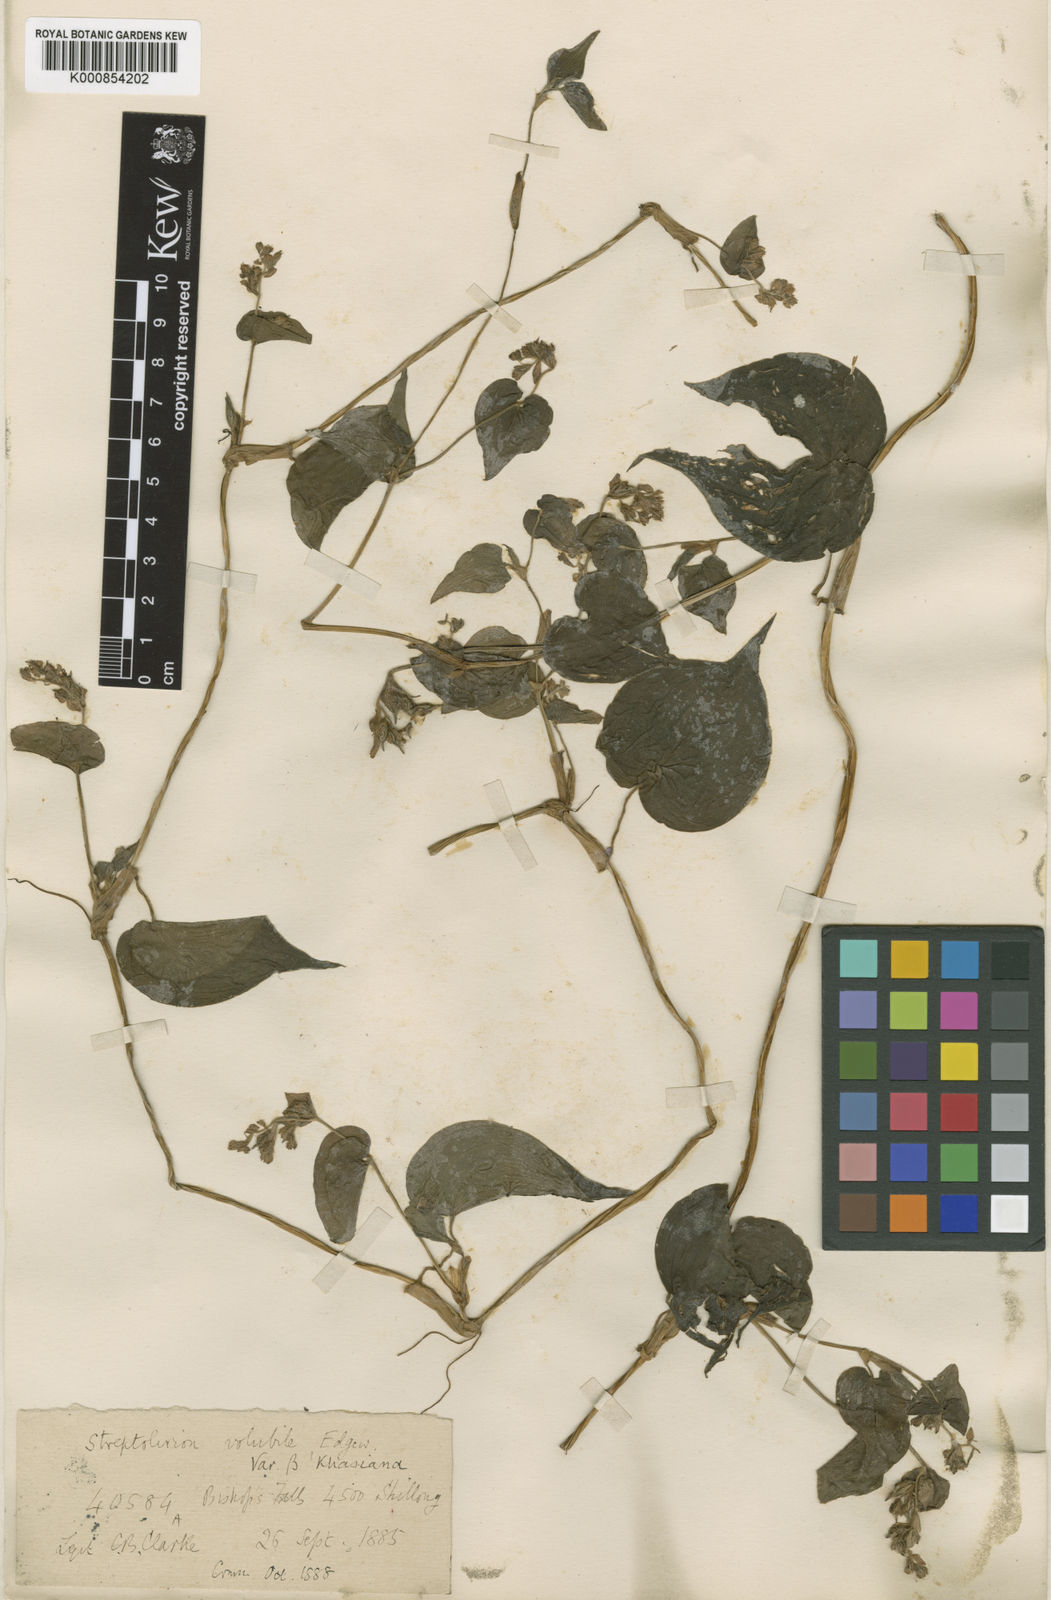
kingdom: Plantae
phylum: Tracheophyta
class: Liliopsida
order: Commelinales
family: Commelinaceae
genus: Streptolirion
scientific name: Streptolirion volubile
